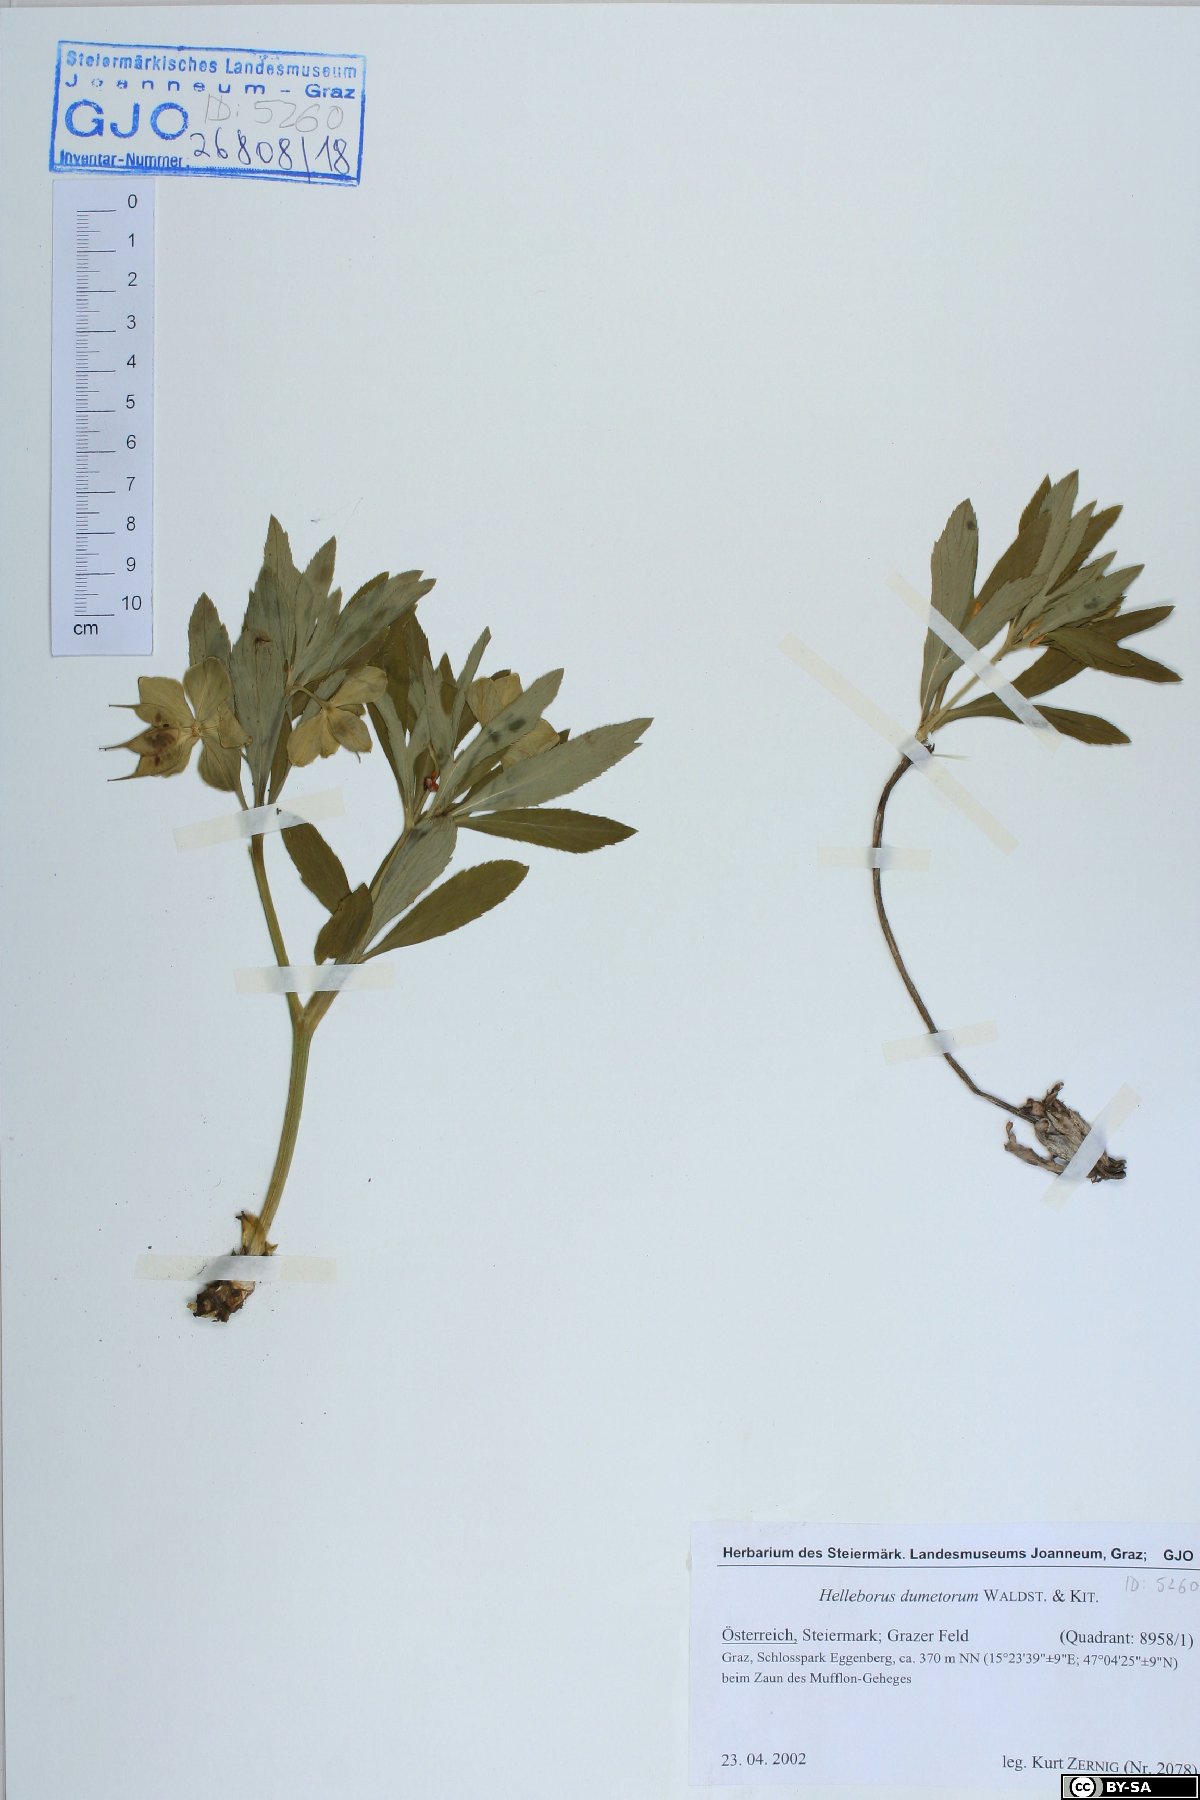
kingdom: Plantae
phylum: Tracheophyta
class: Magnoliopsida
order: Ranunculales
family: Ranunculaceae
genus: Helleborus
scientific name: Helleborus dumetorum
